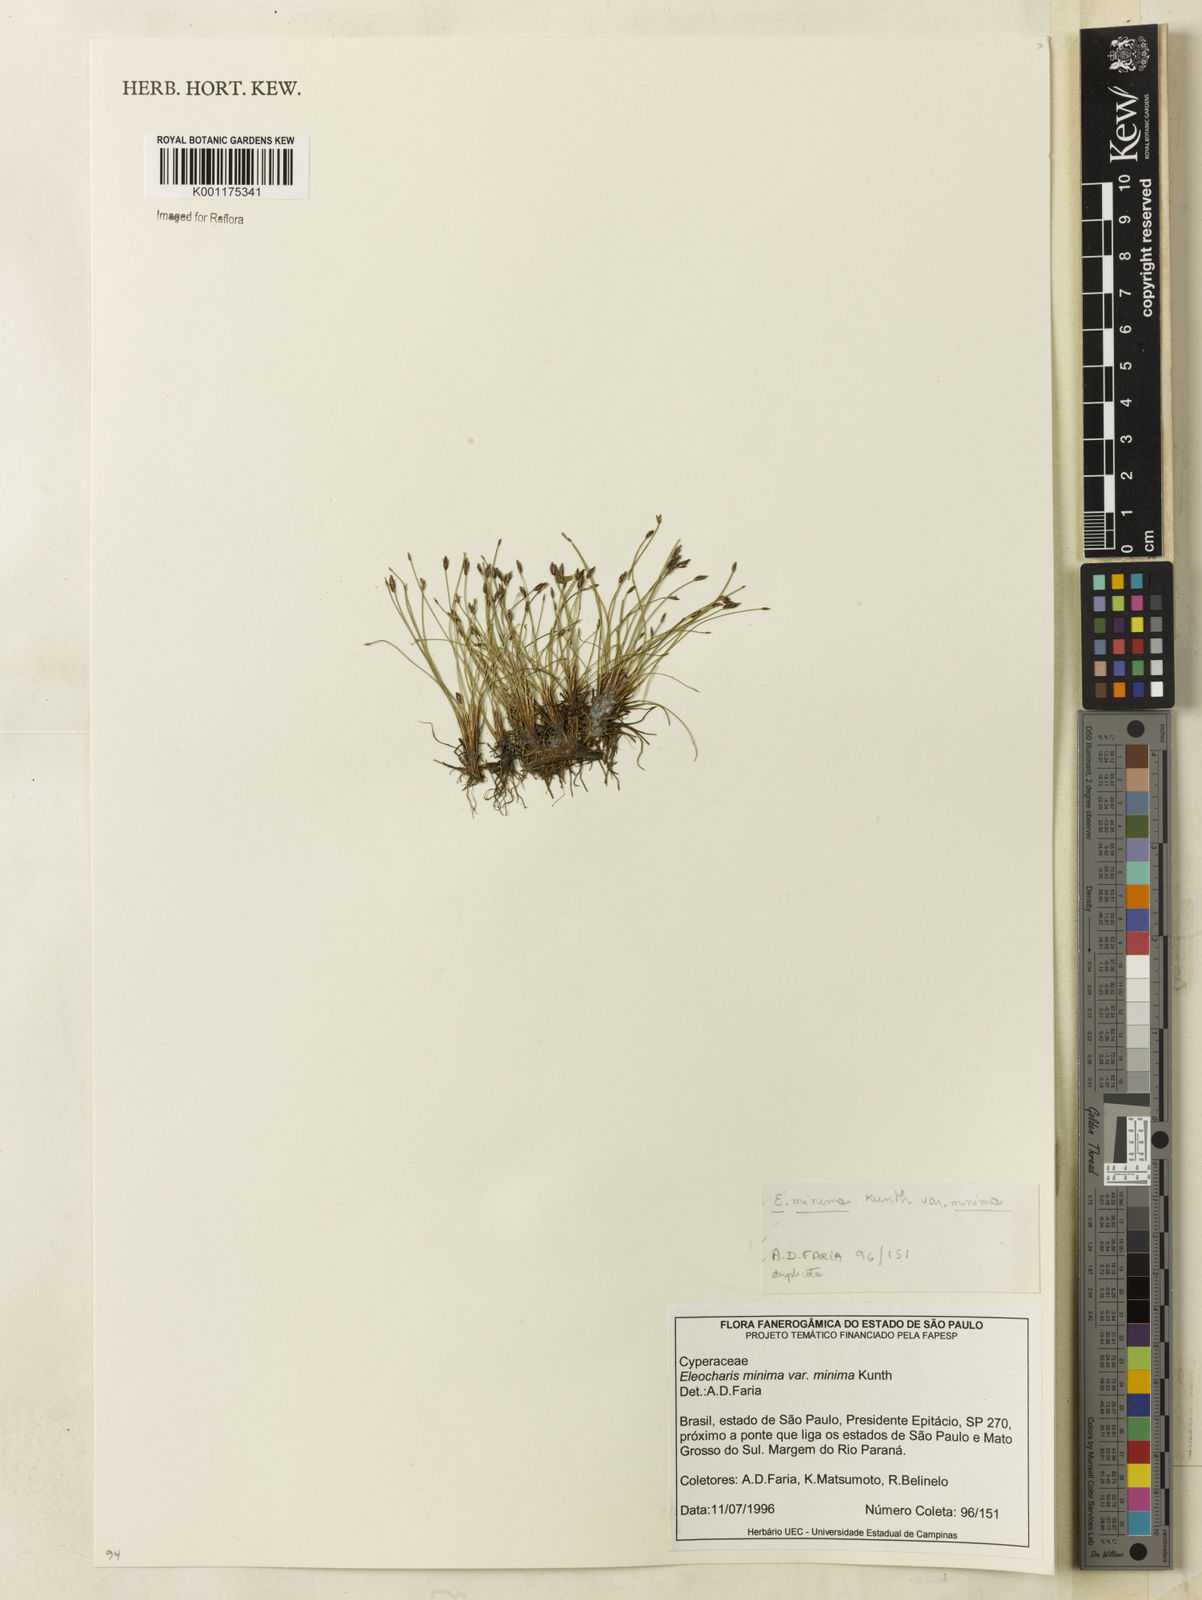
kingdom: Plantae
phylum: Tracheophyta
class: Liliopsida
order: Poales
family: Cyperaceae
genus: Eleocharis
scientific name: Eleocharis minima
